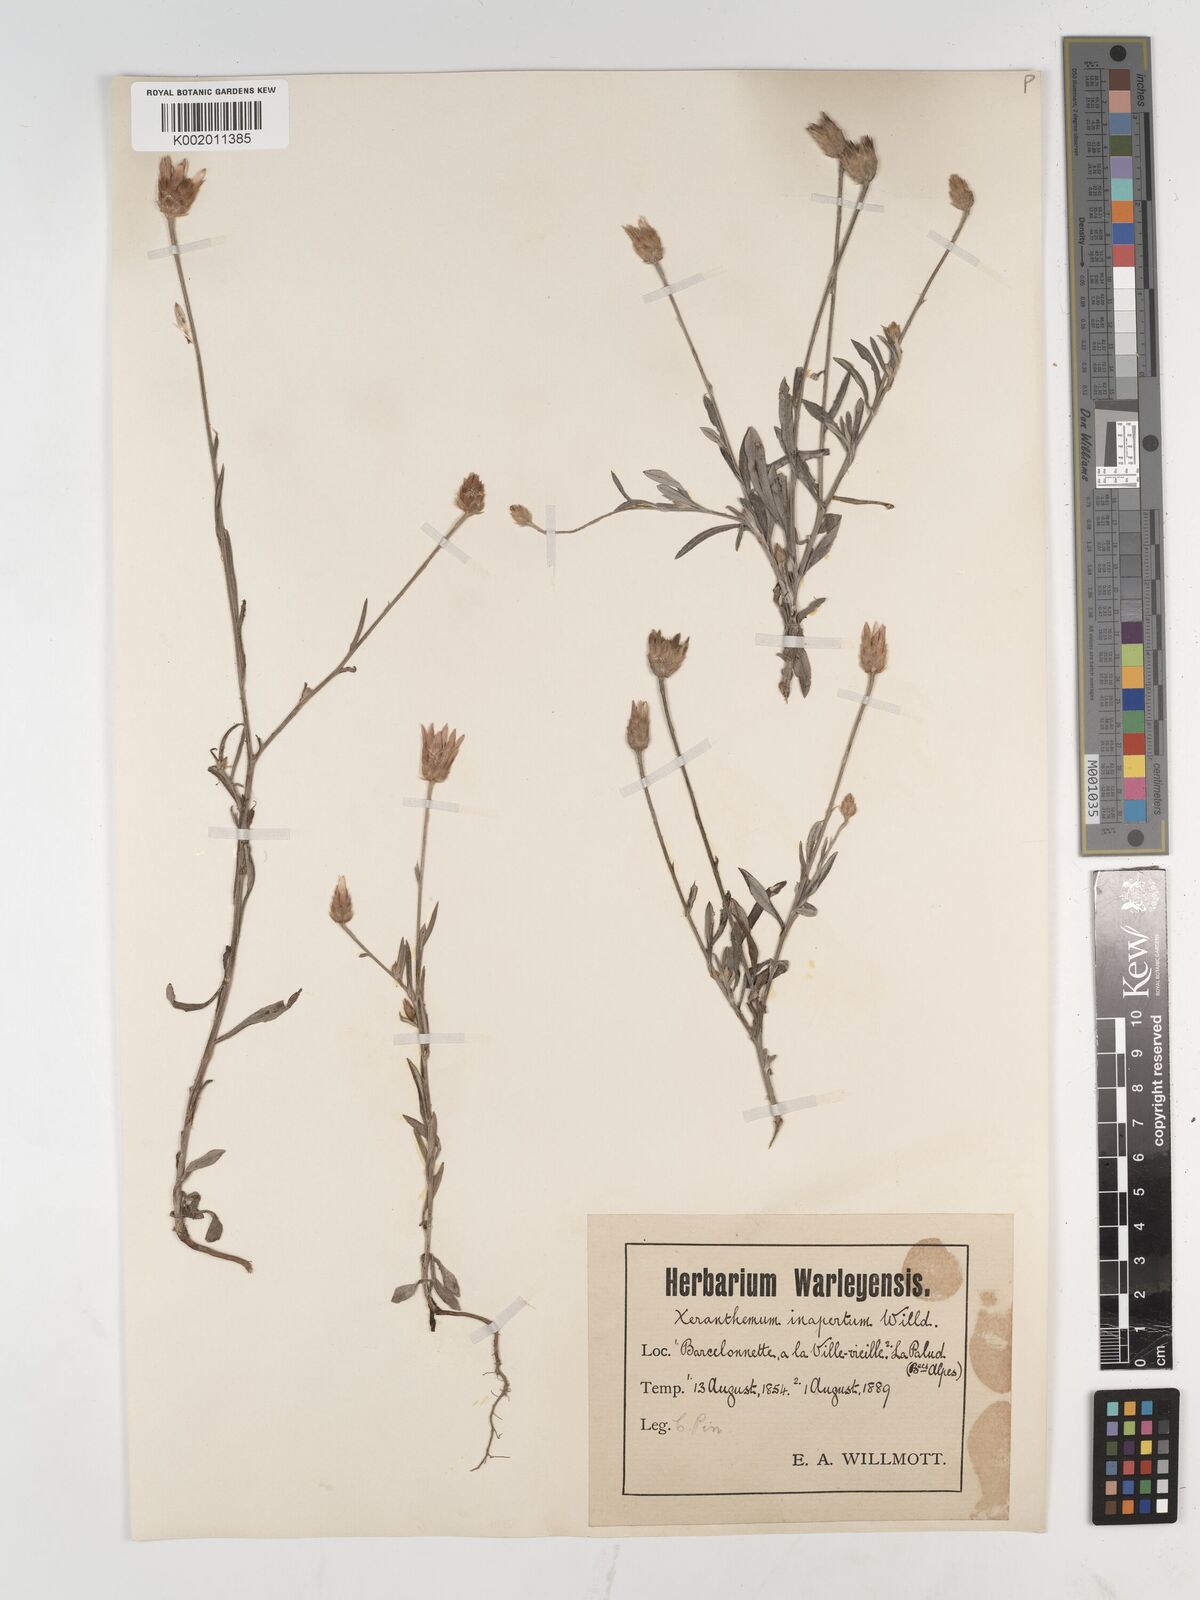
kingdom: Plantae
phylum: Tracheophyta
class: Magnoliopsida
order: Asterales
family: Asteraceae
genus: Xeranthemum
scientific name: Xeranthemum inapertum
